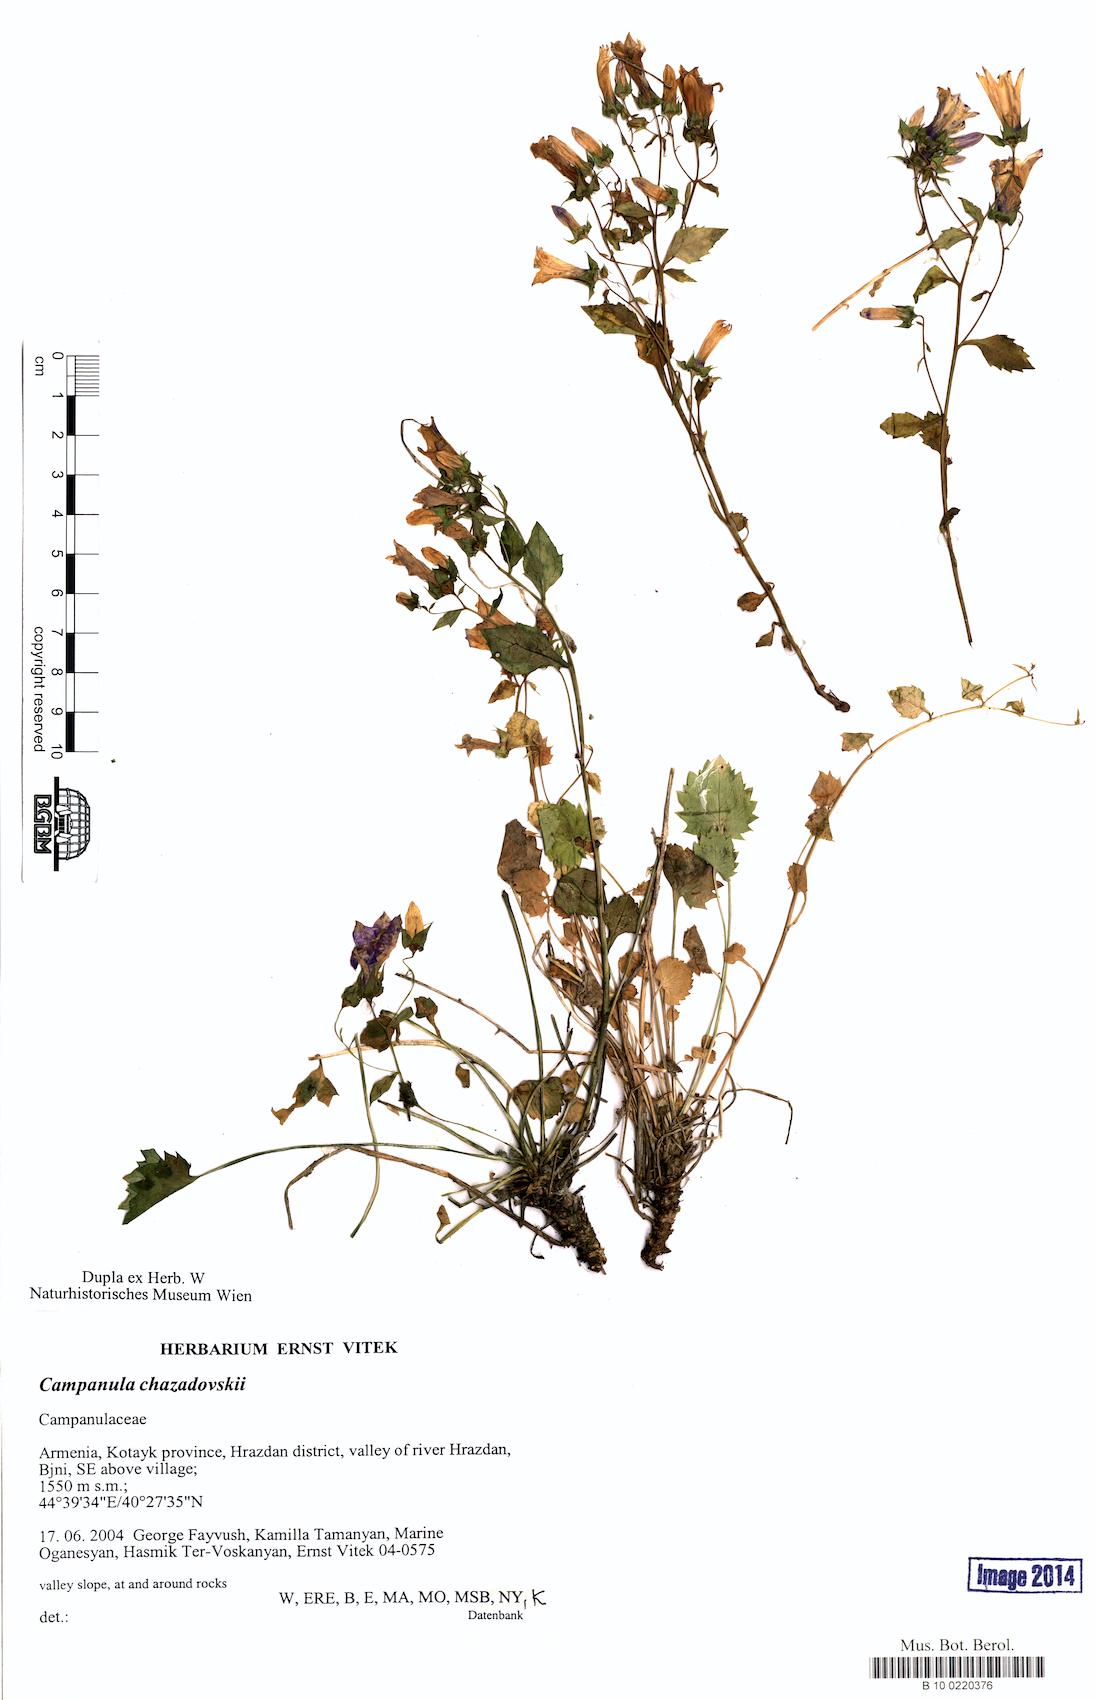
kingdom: Plantae
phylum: Tracheophyta
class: Magnoliopsida
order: Asterales
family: Campanulaceae
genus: Campanula
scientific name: Campanula bayerniana
